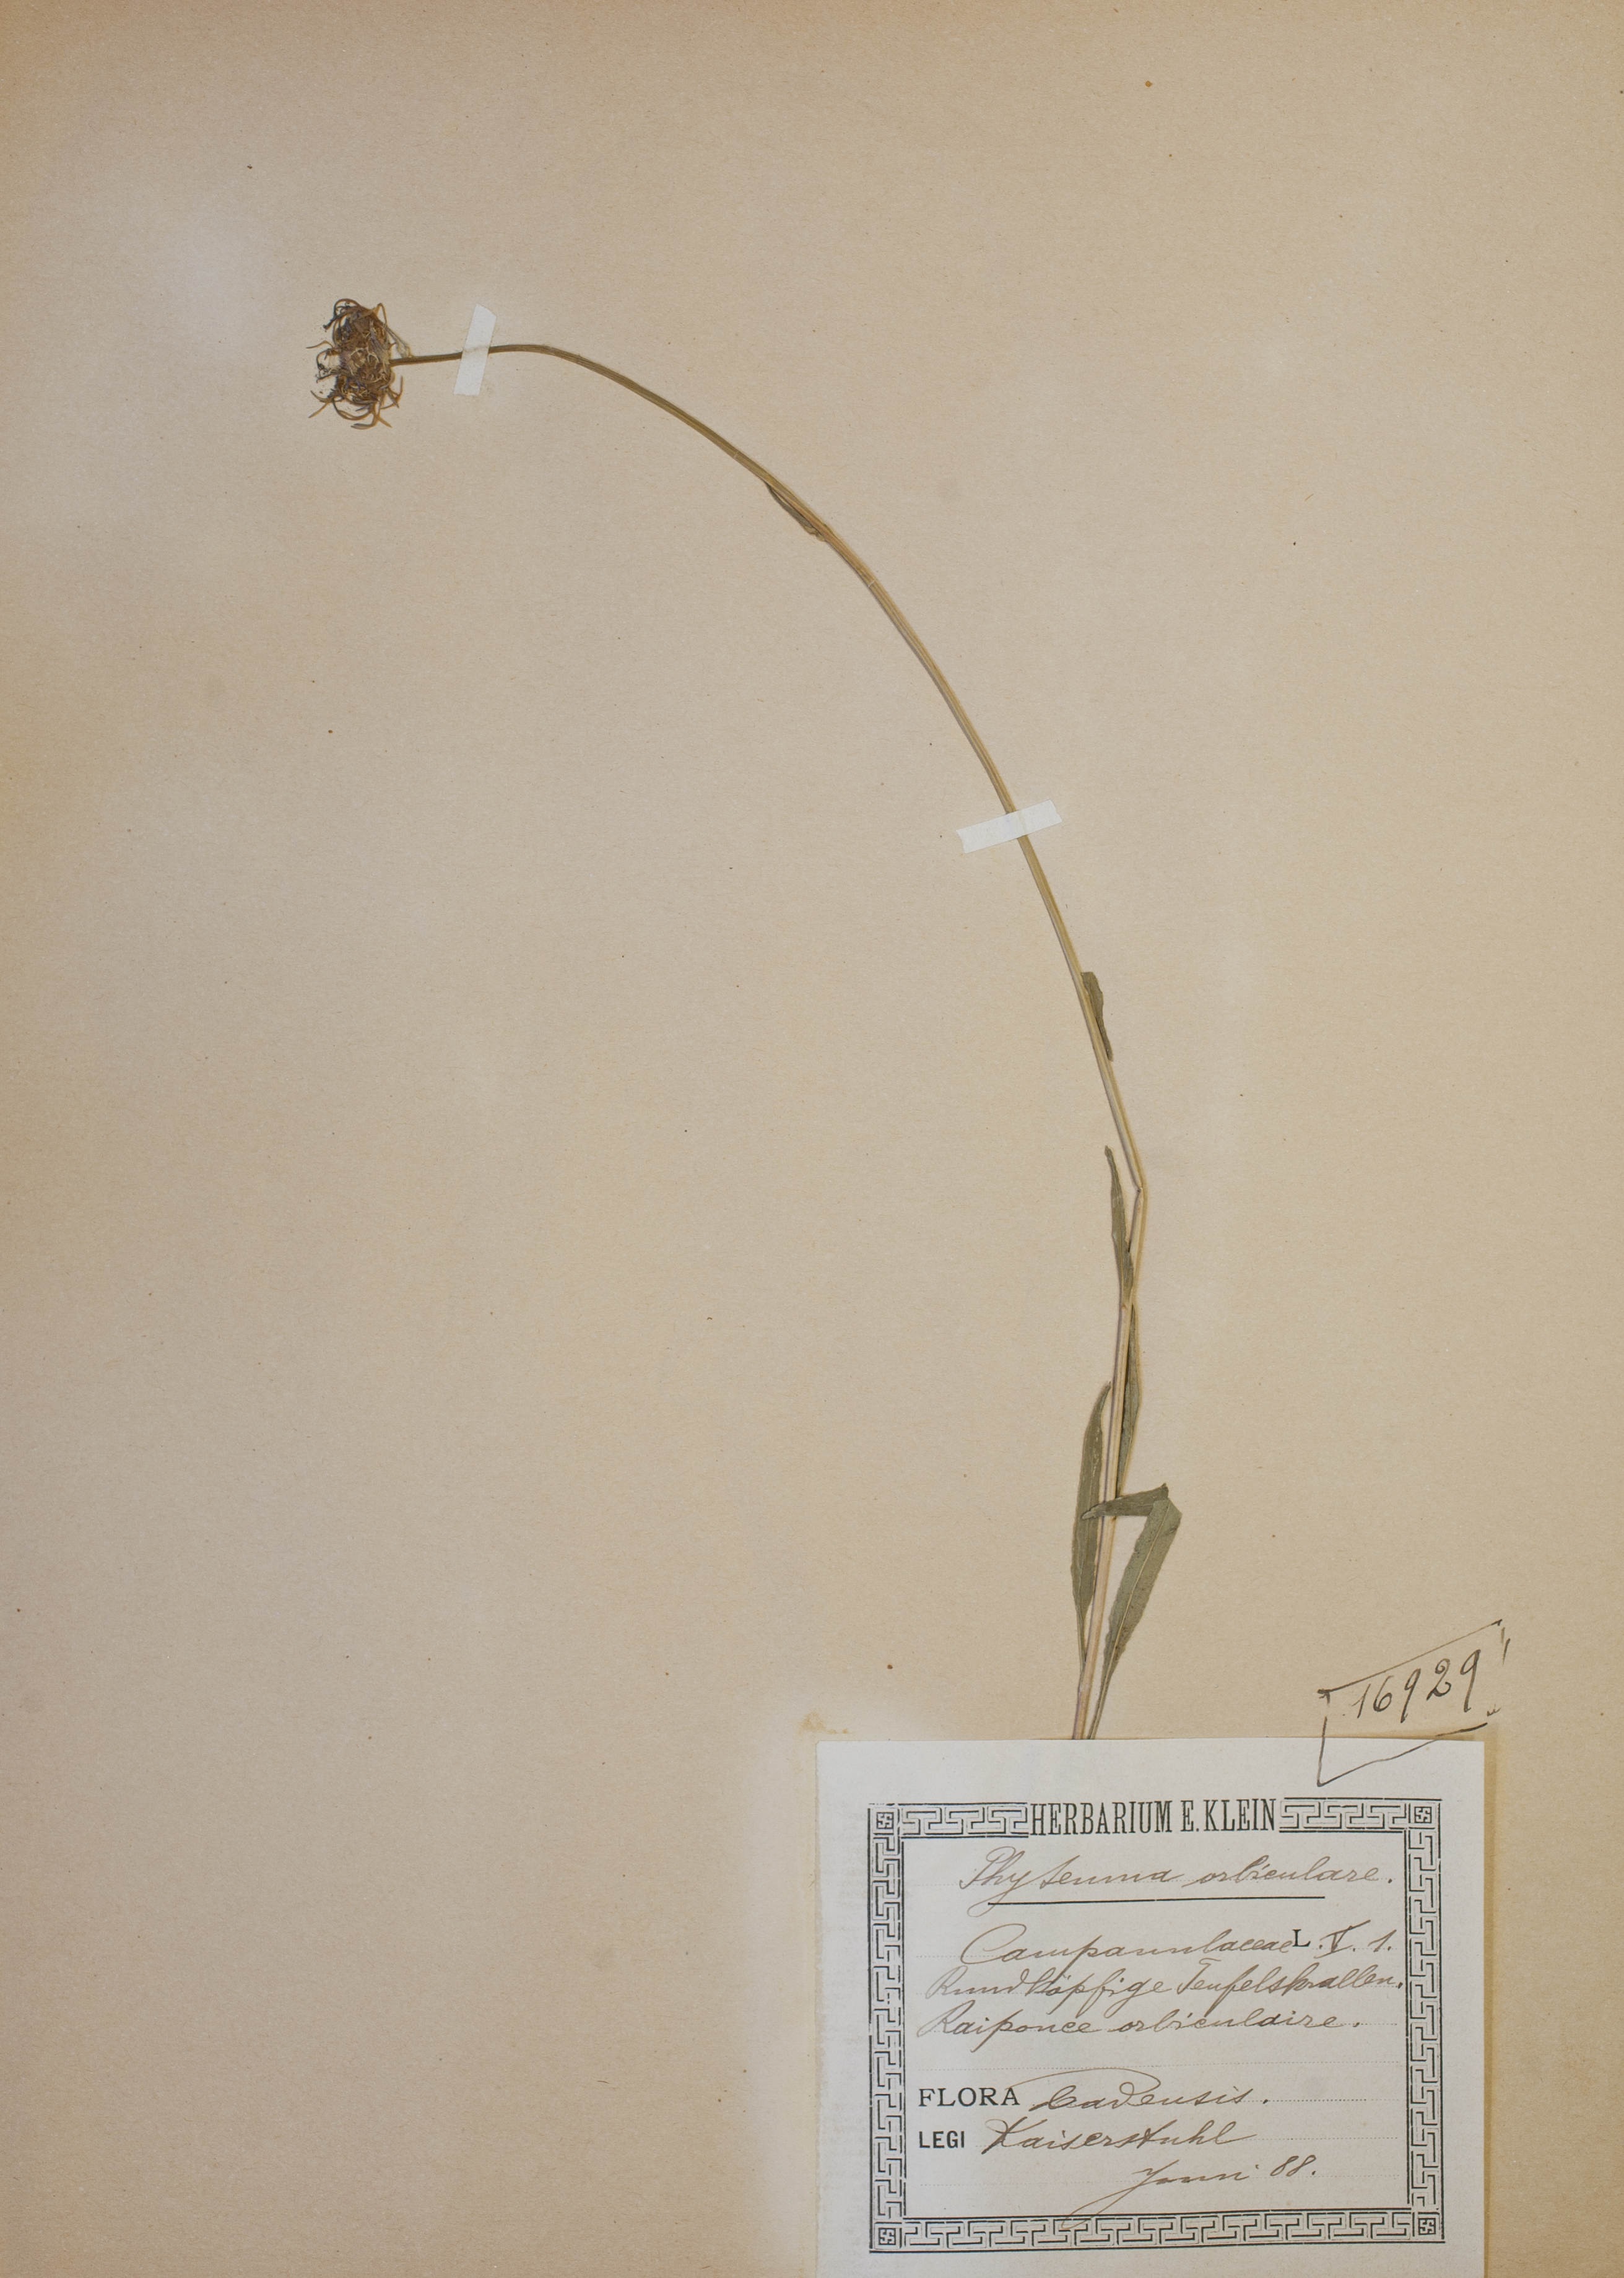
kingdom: Plantae
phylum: Tracheophyta
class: Magnoliopsida
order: Asterales
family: Campanulaceae
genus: Phyteuma
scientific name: Phyteuma orbiculare
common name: Round-headed rampion
